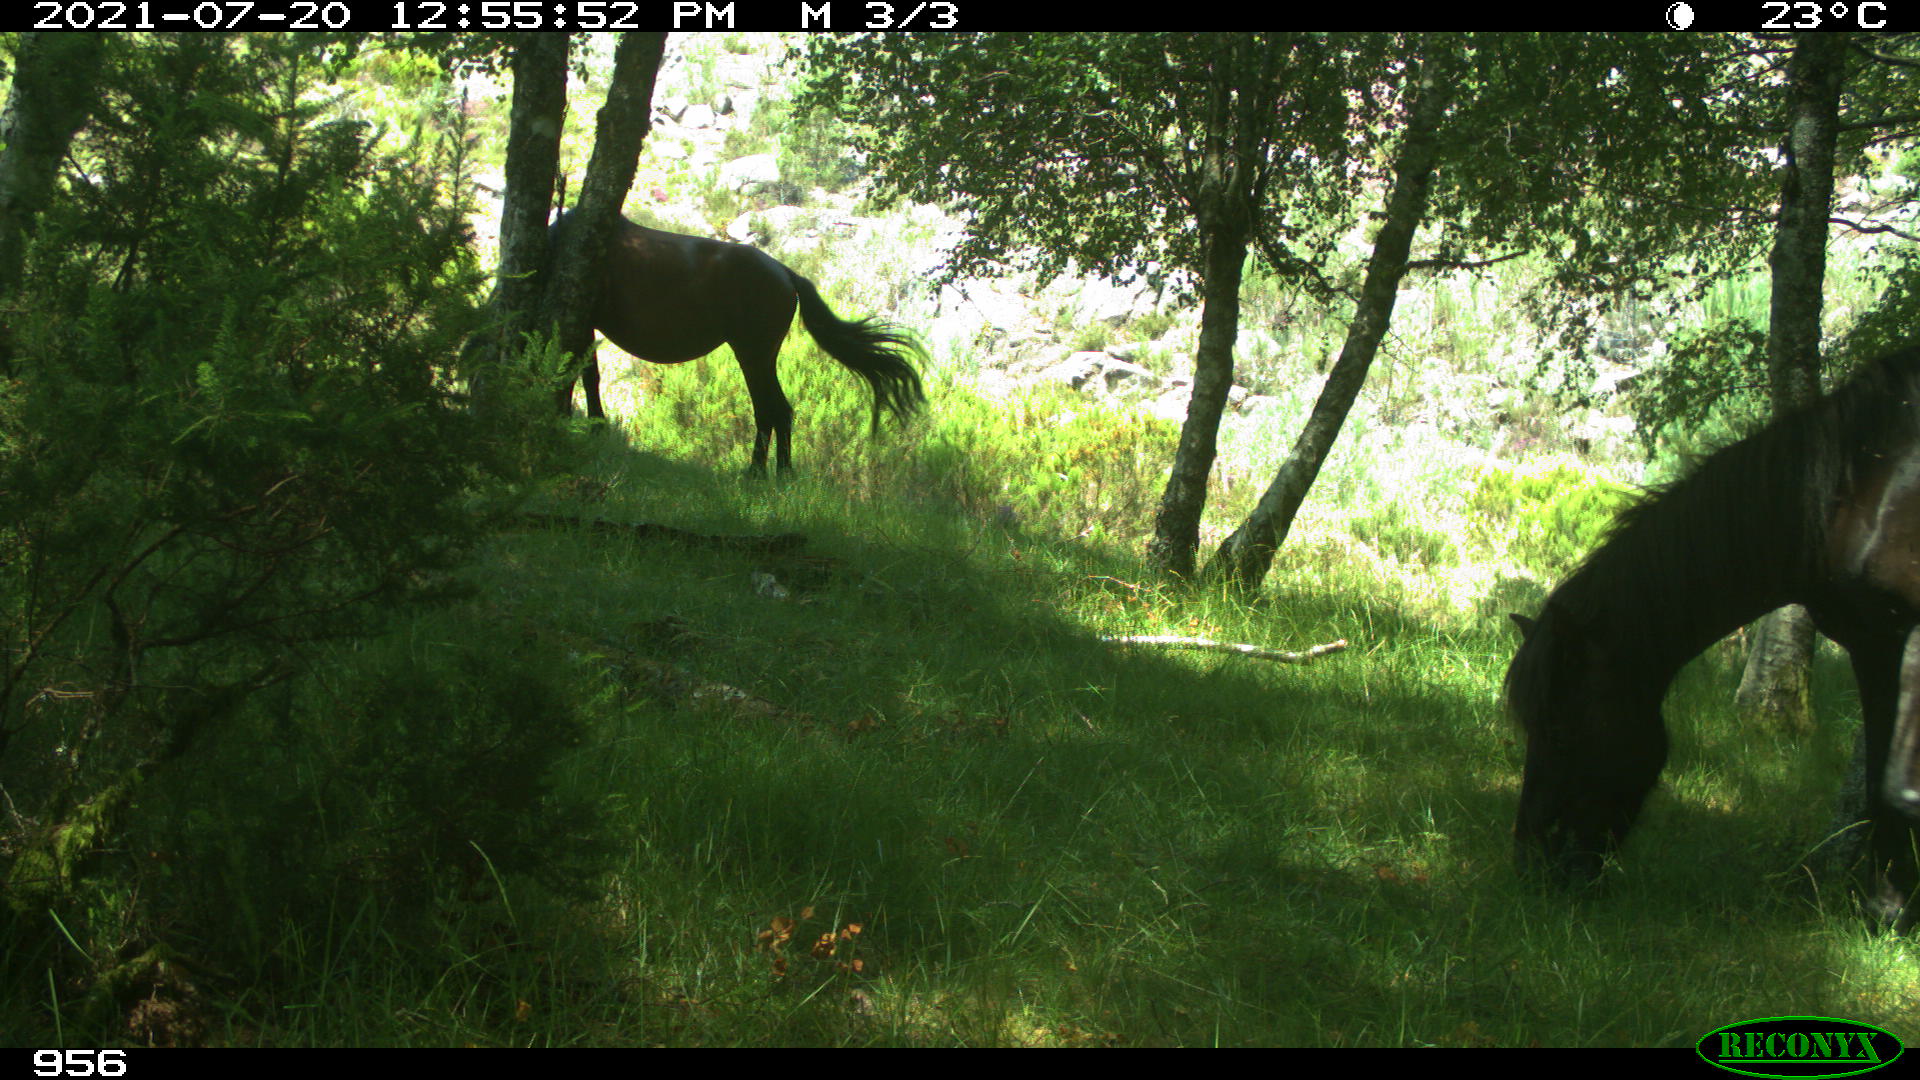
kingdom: Animalia
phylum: Chordata
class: Mammalia
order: Perissodactyla
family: Equidae
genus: Equus
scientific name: Equus caballus
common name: Horse
